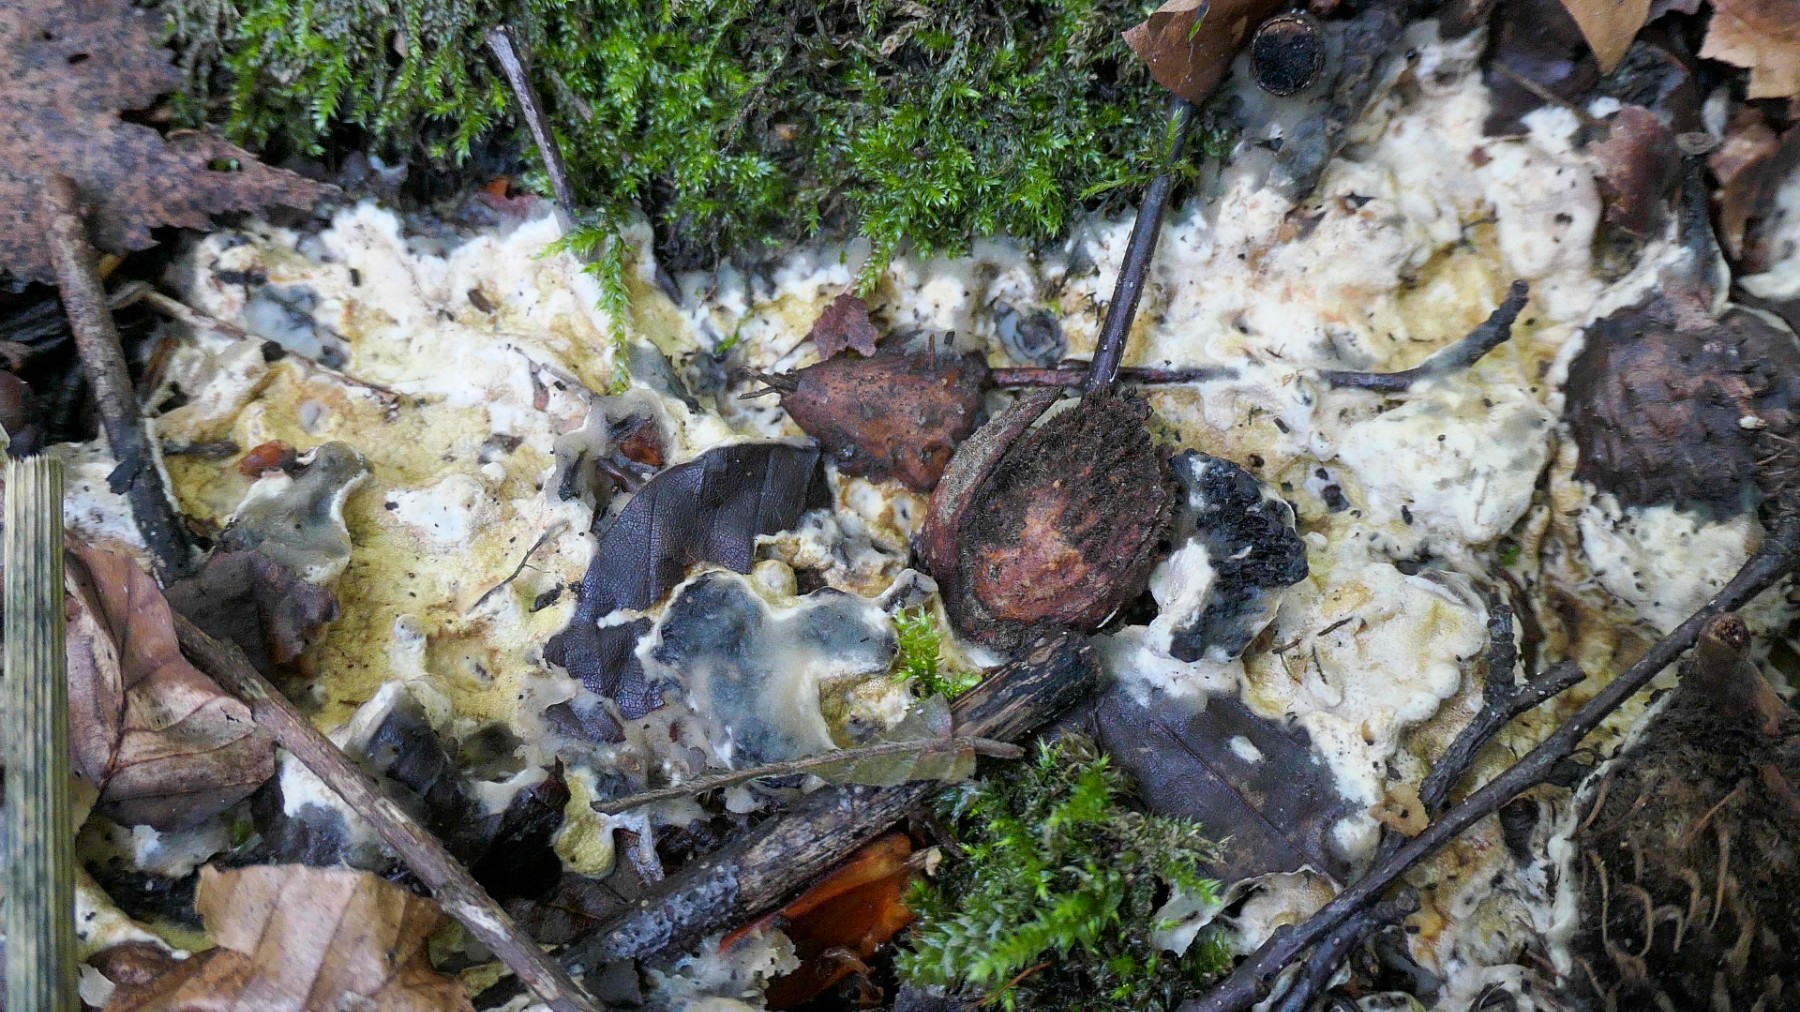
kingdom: Fungi
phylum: Ascomycota
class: Sordariomycetes
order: Hypocreales
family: Hypocreaceae
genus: Trichoderma
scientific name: Trichoderma citrinum
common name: udbredt kødkerne
